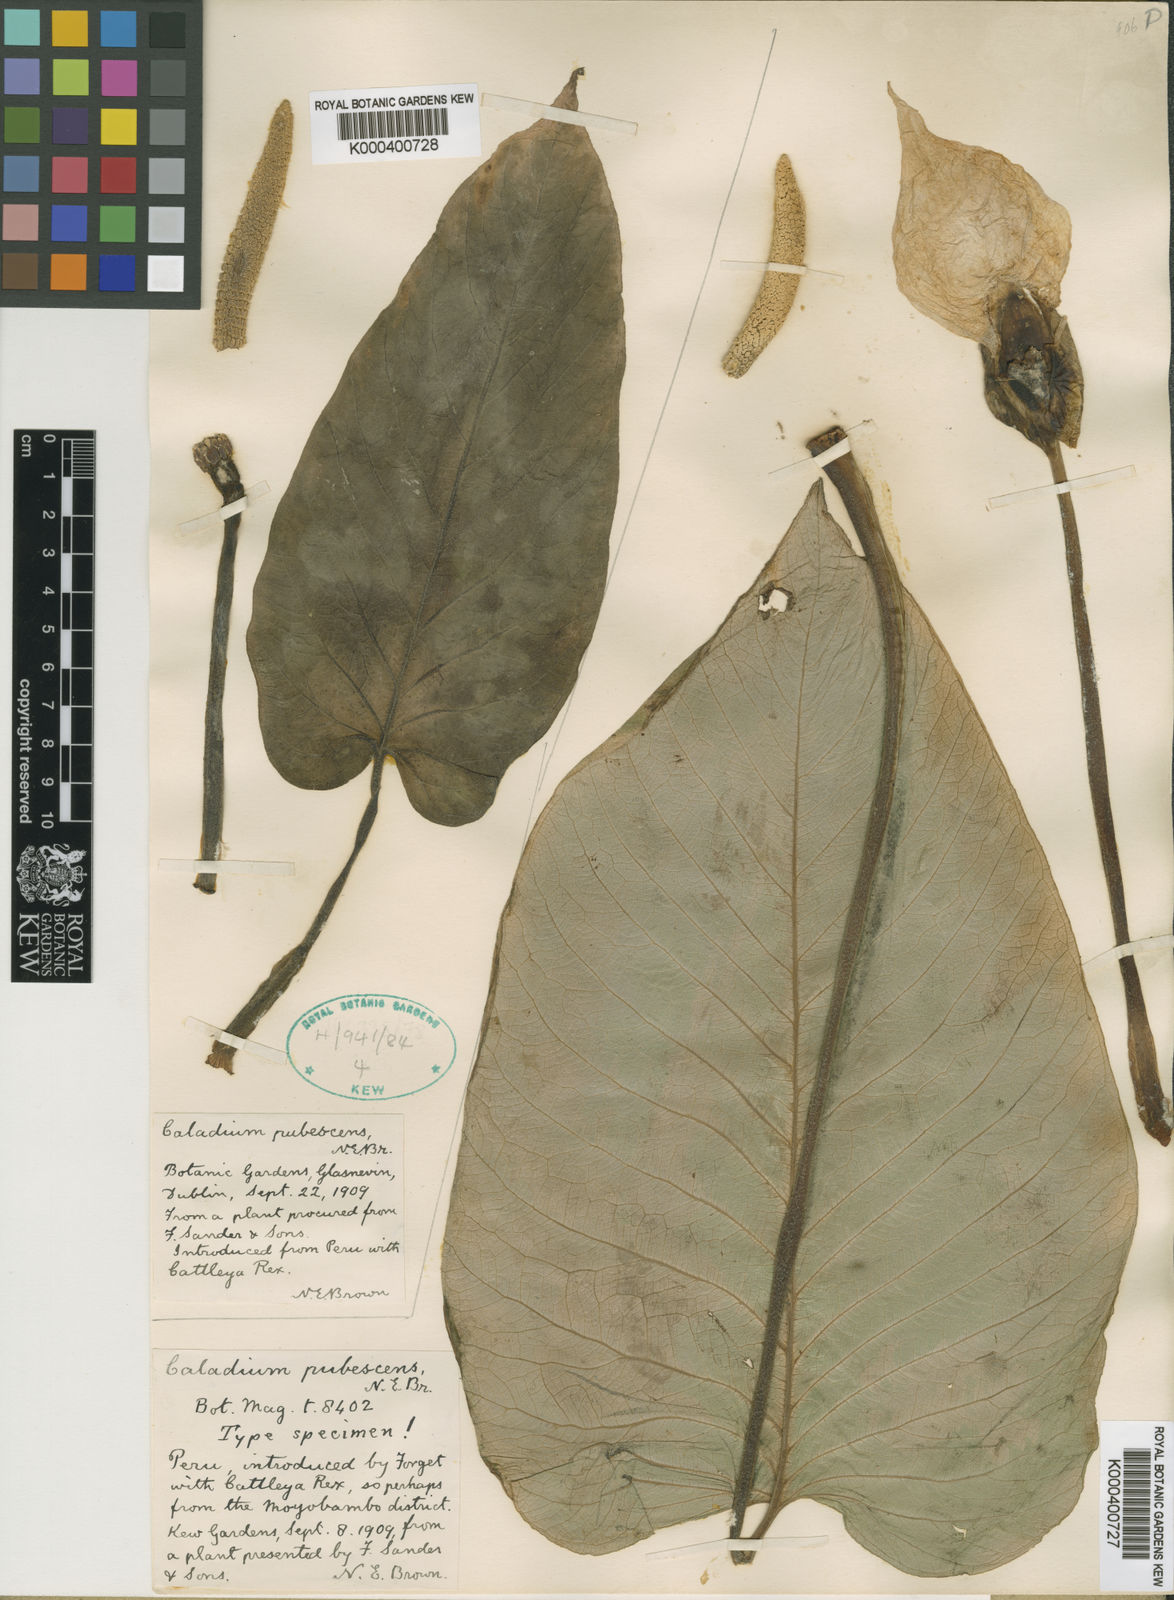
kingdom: Plantae
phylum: Tracheophyta
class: Liliopsida
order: Alismatales
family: Araceae
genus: Xanthosoma
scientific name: Xanthosoma pubescens
